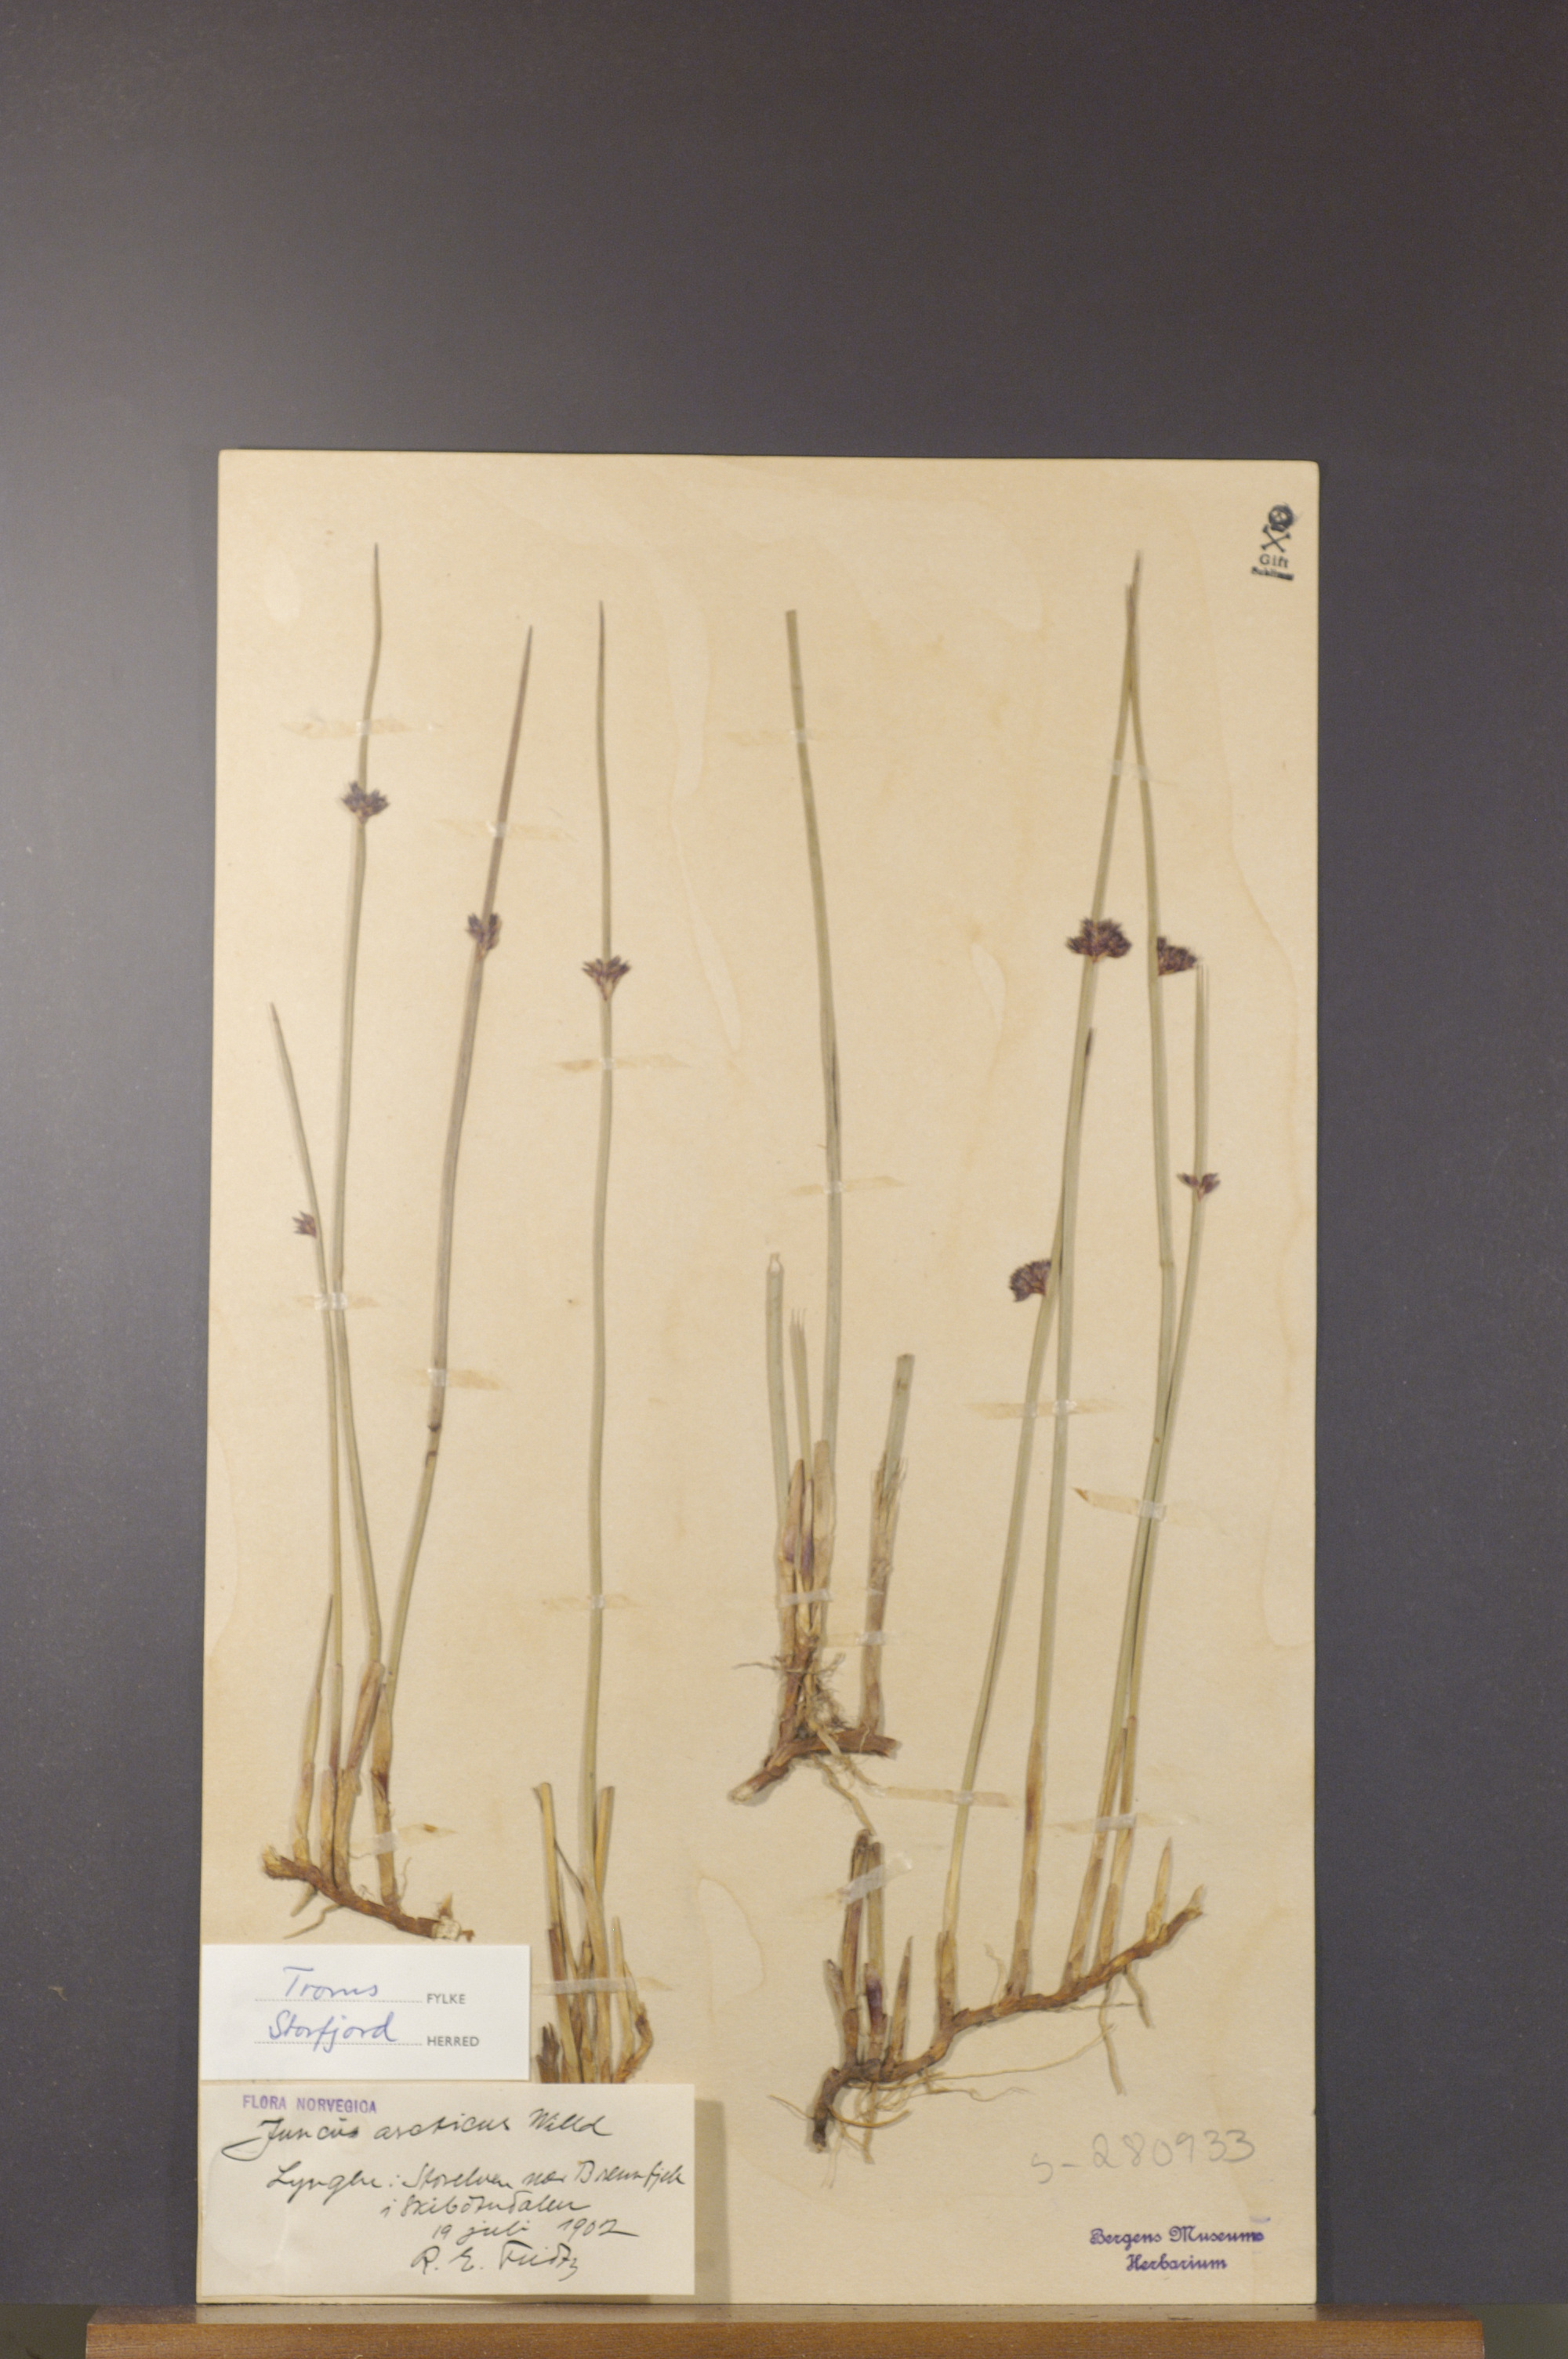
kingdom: Plantae
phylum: Tracheophyta
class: Liliopsida
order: Poales
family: Juncaceae
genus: Juncus
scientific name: Juncus arcticus
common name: Arctic rush
